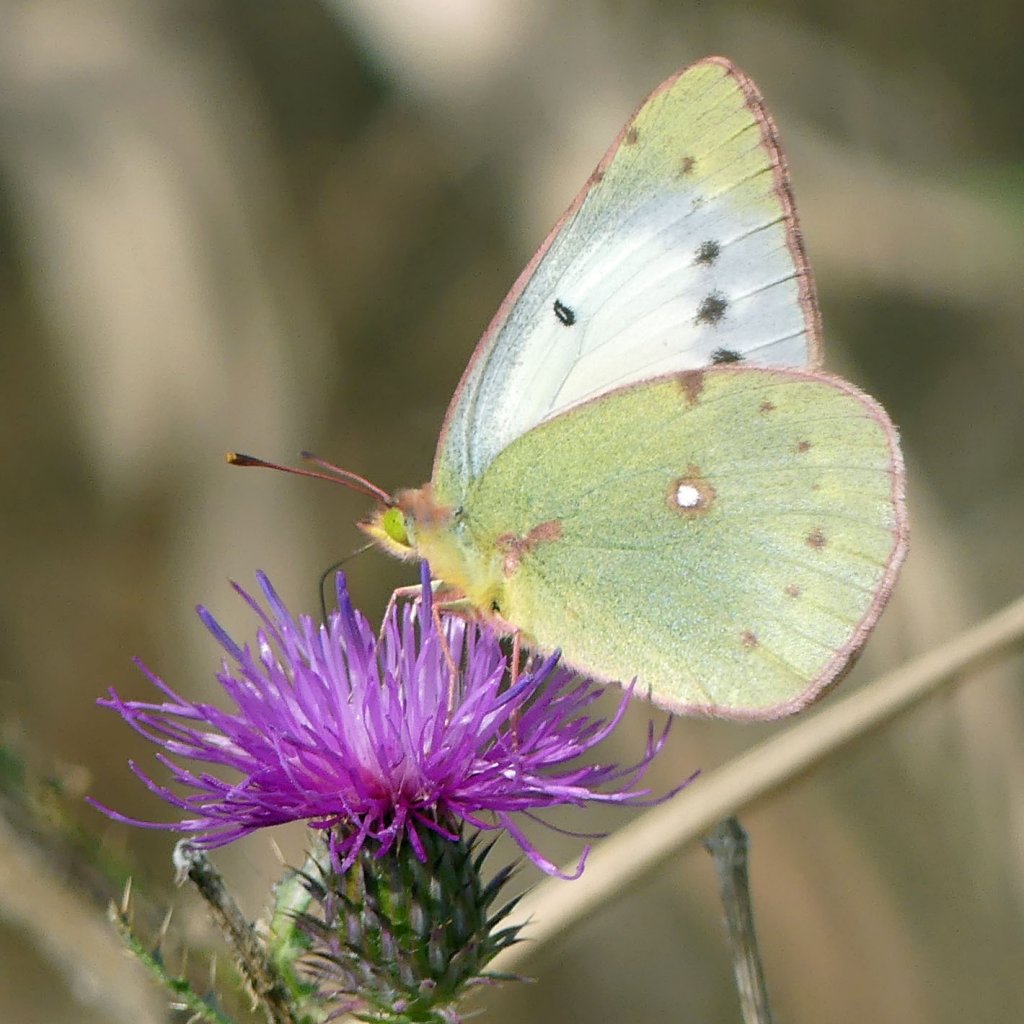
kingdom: Animalia
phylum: Arthropoda
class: Insecta
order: Lepidoptera
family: Pieridae
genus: Colias
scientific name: Colias philodice
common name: Clouded Sulphur
